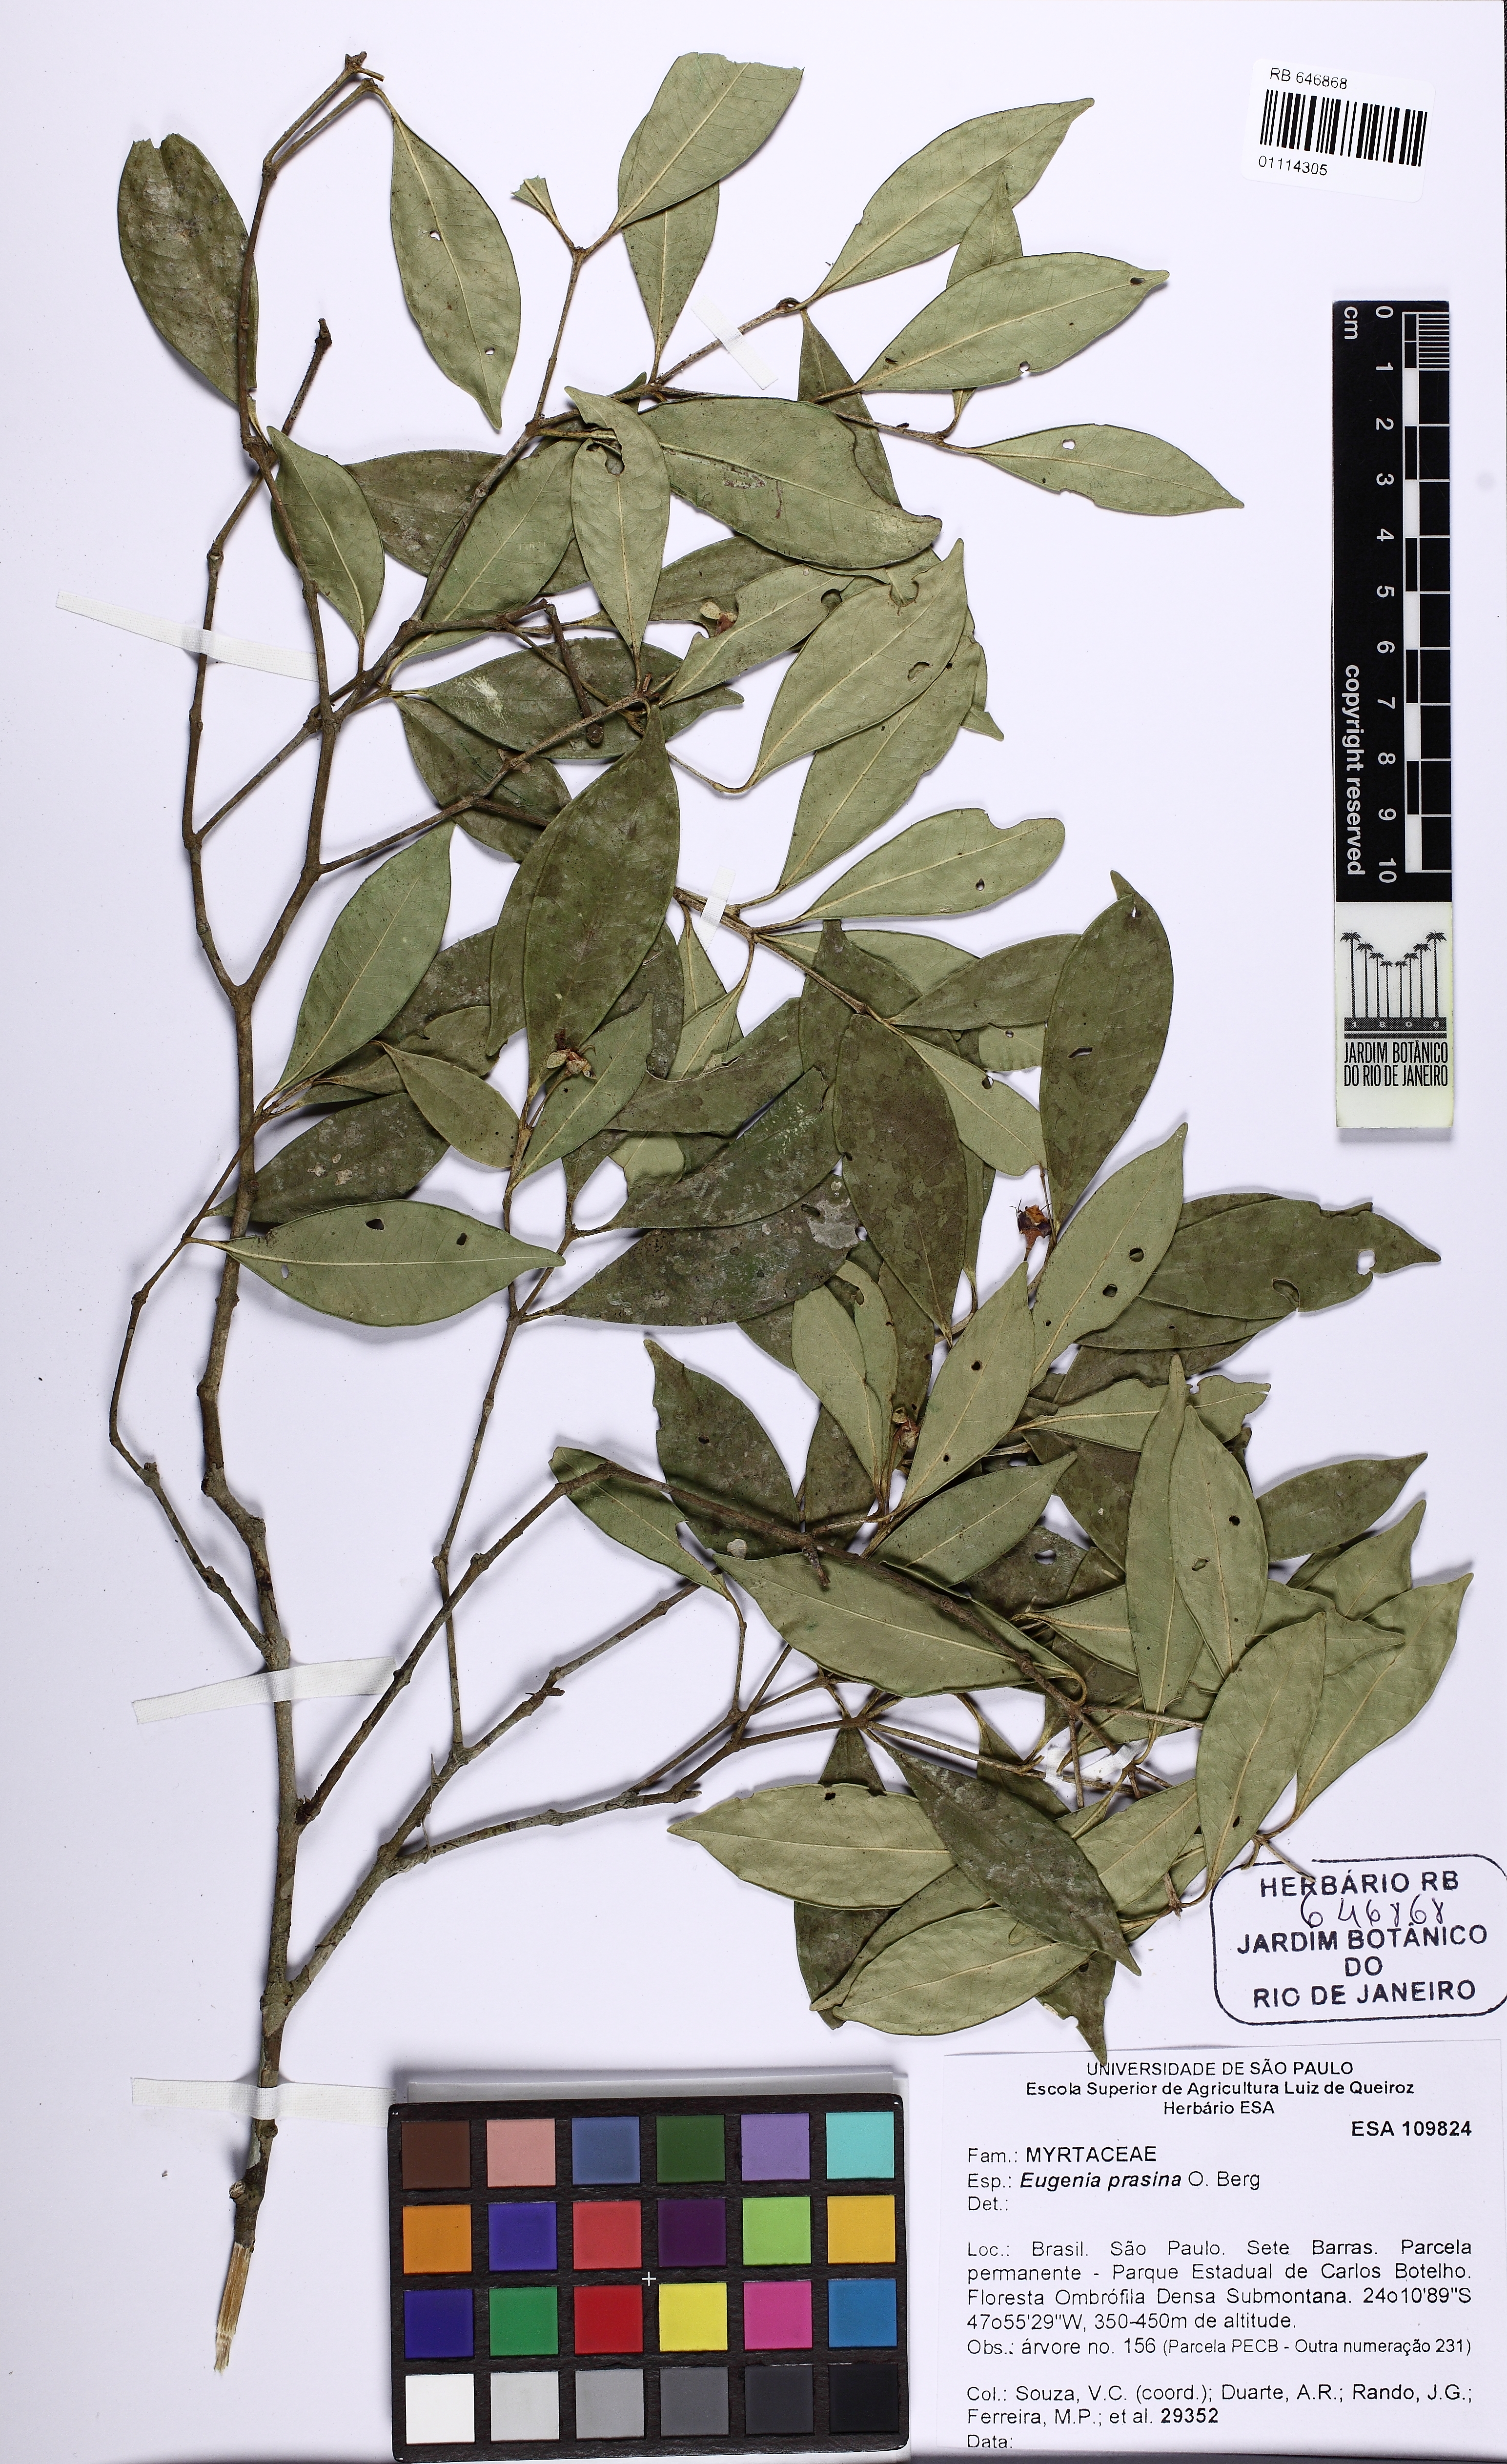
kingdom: Plantae
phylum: Tracheophyta
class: Magnoliopsida
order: Myrtales
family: Myrtaceae
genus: Eugenia
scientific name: Eugenia prasina
